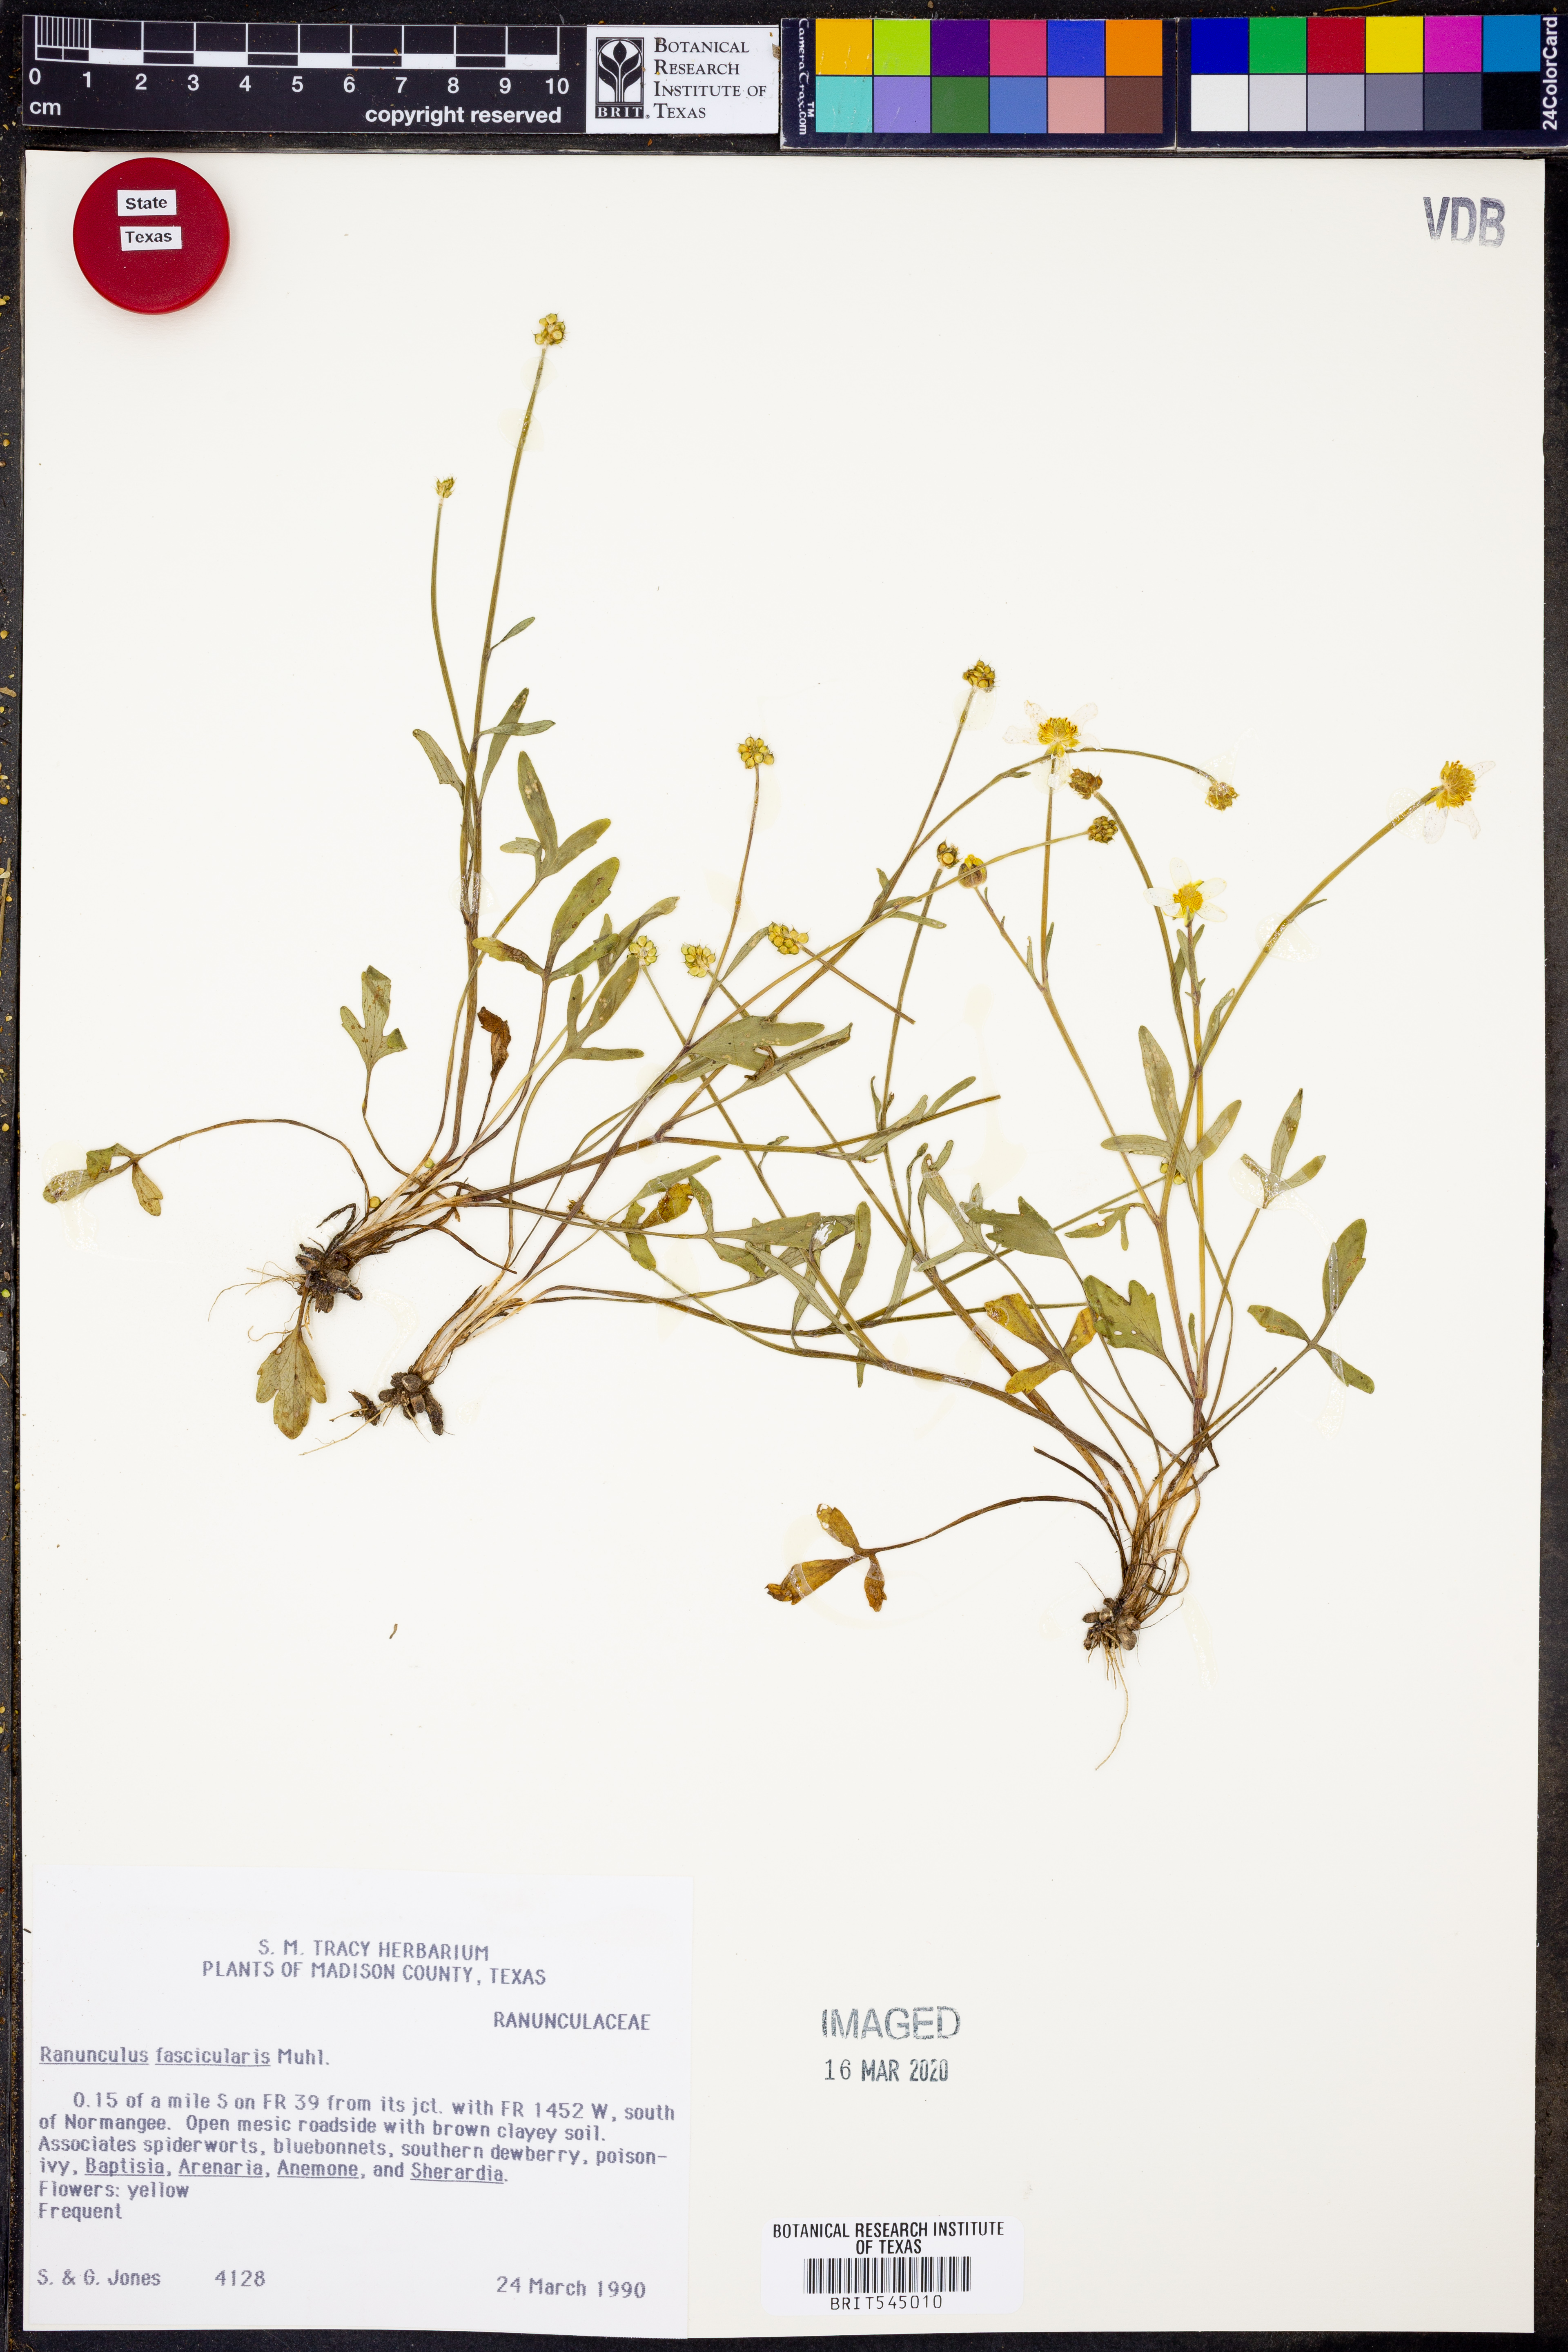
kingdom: Plantae
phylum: Tracheophyta
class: Magnoliopsida
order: Ranunculales
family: Ranunculaceae
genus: Ranunculus
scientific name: Ranunculus fascicularis
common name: Early buttercup
